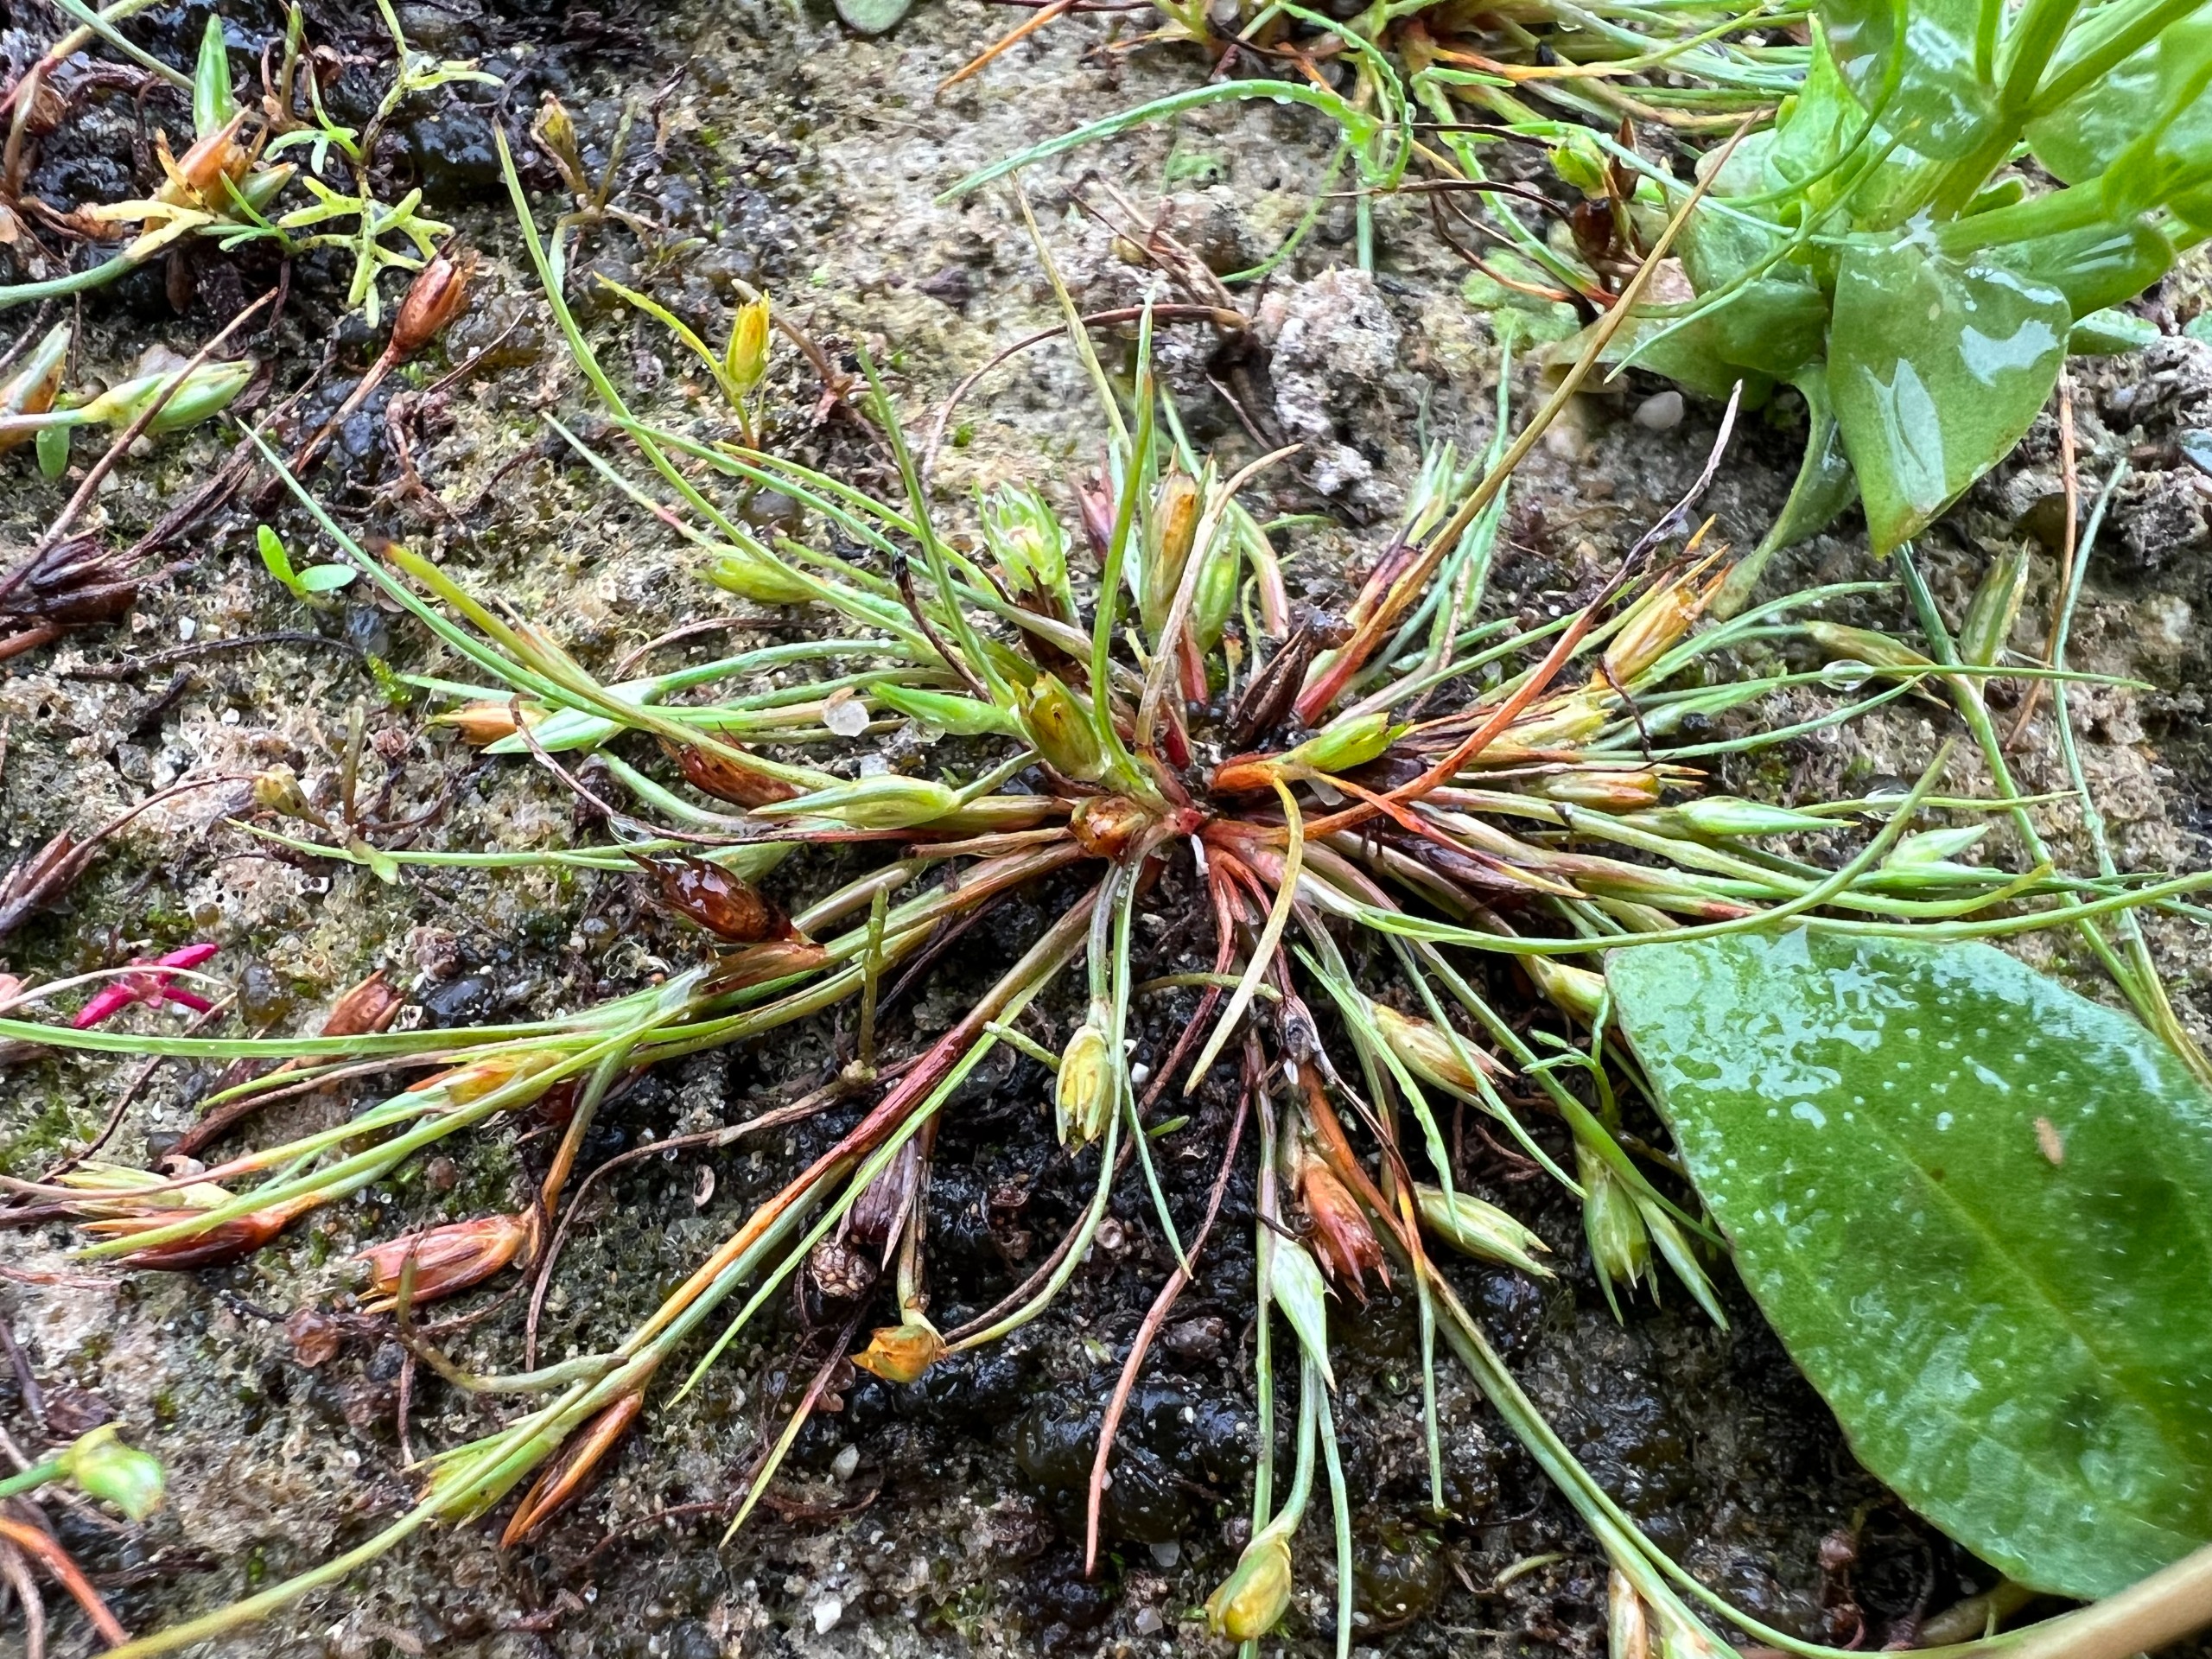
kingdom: Plantae
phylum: Tracheophyta
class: Liliopsida
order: Poales
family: Juncaceae
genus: Juncus
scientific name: Juncus ranarius
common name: Klæg-siv
